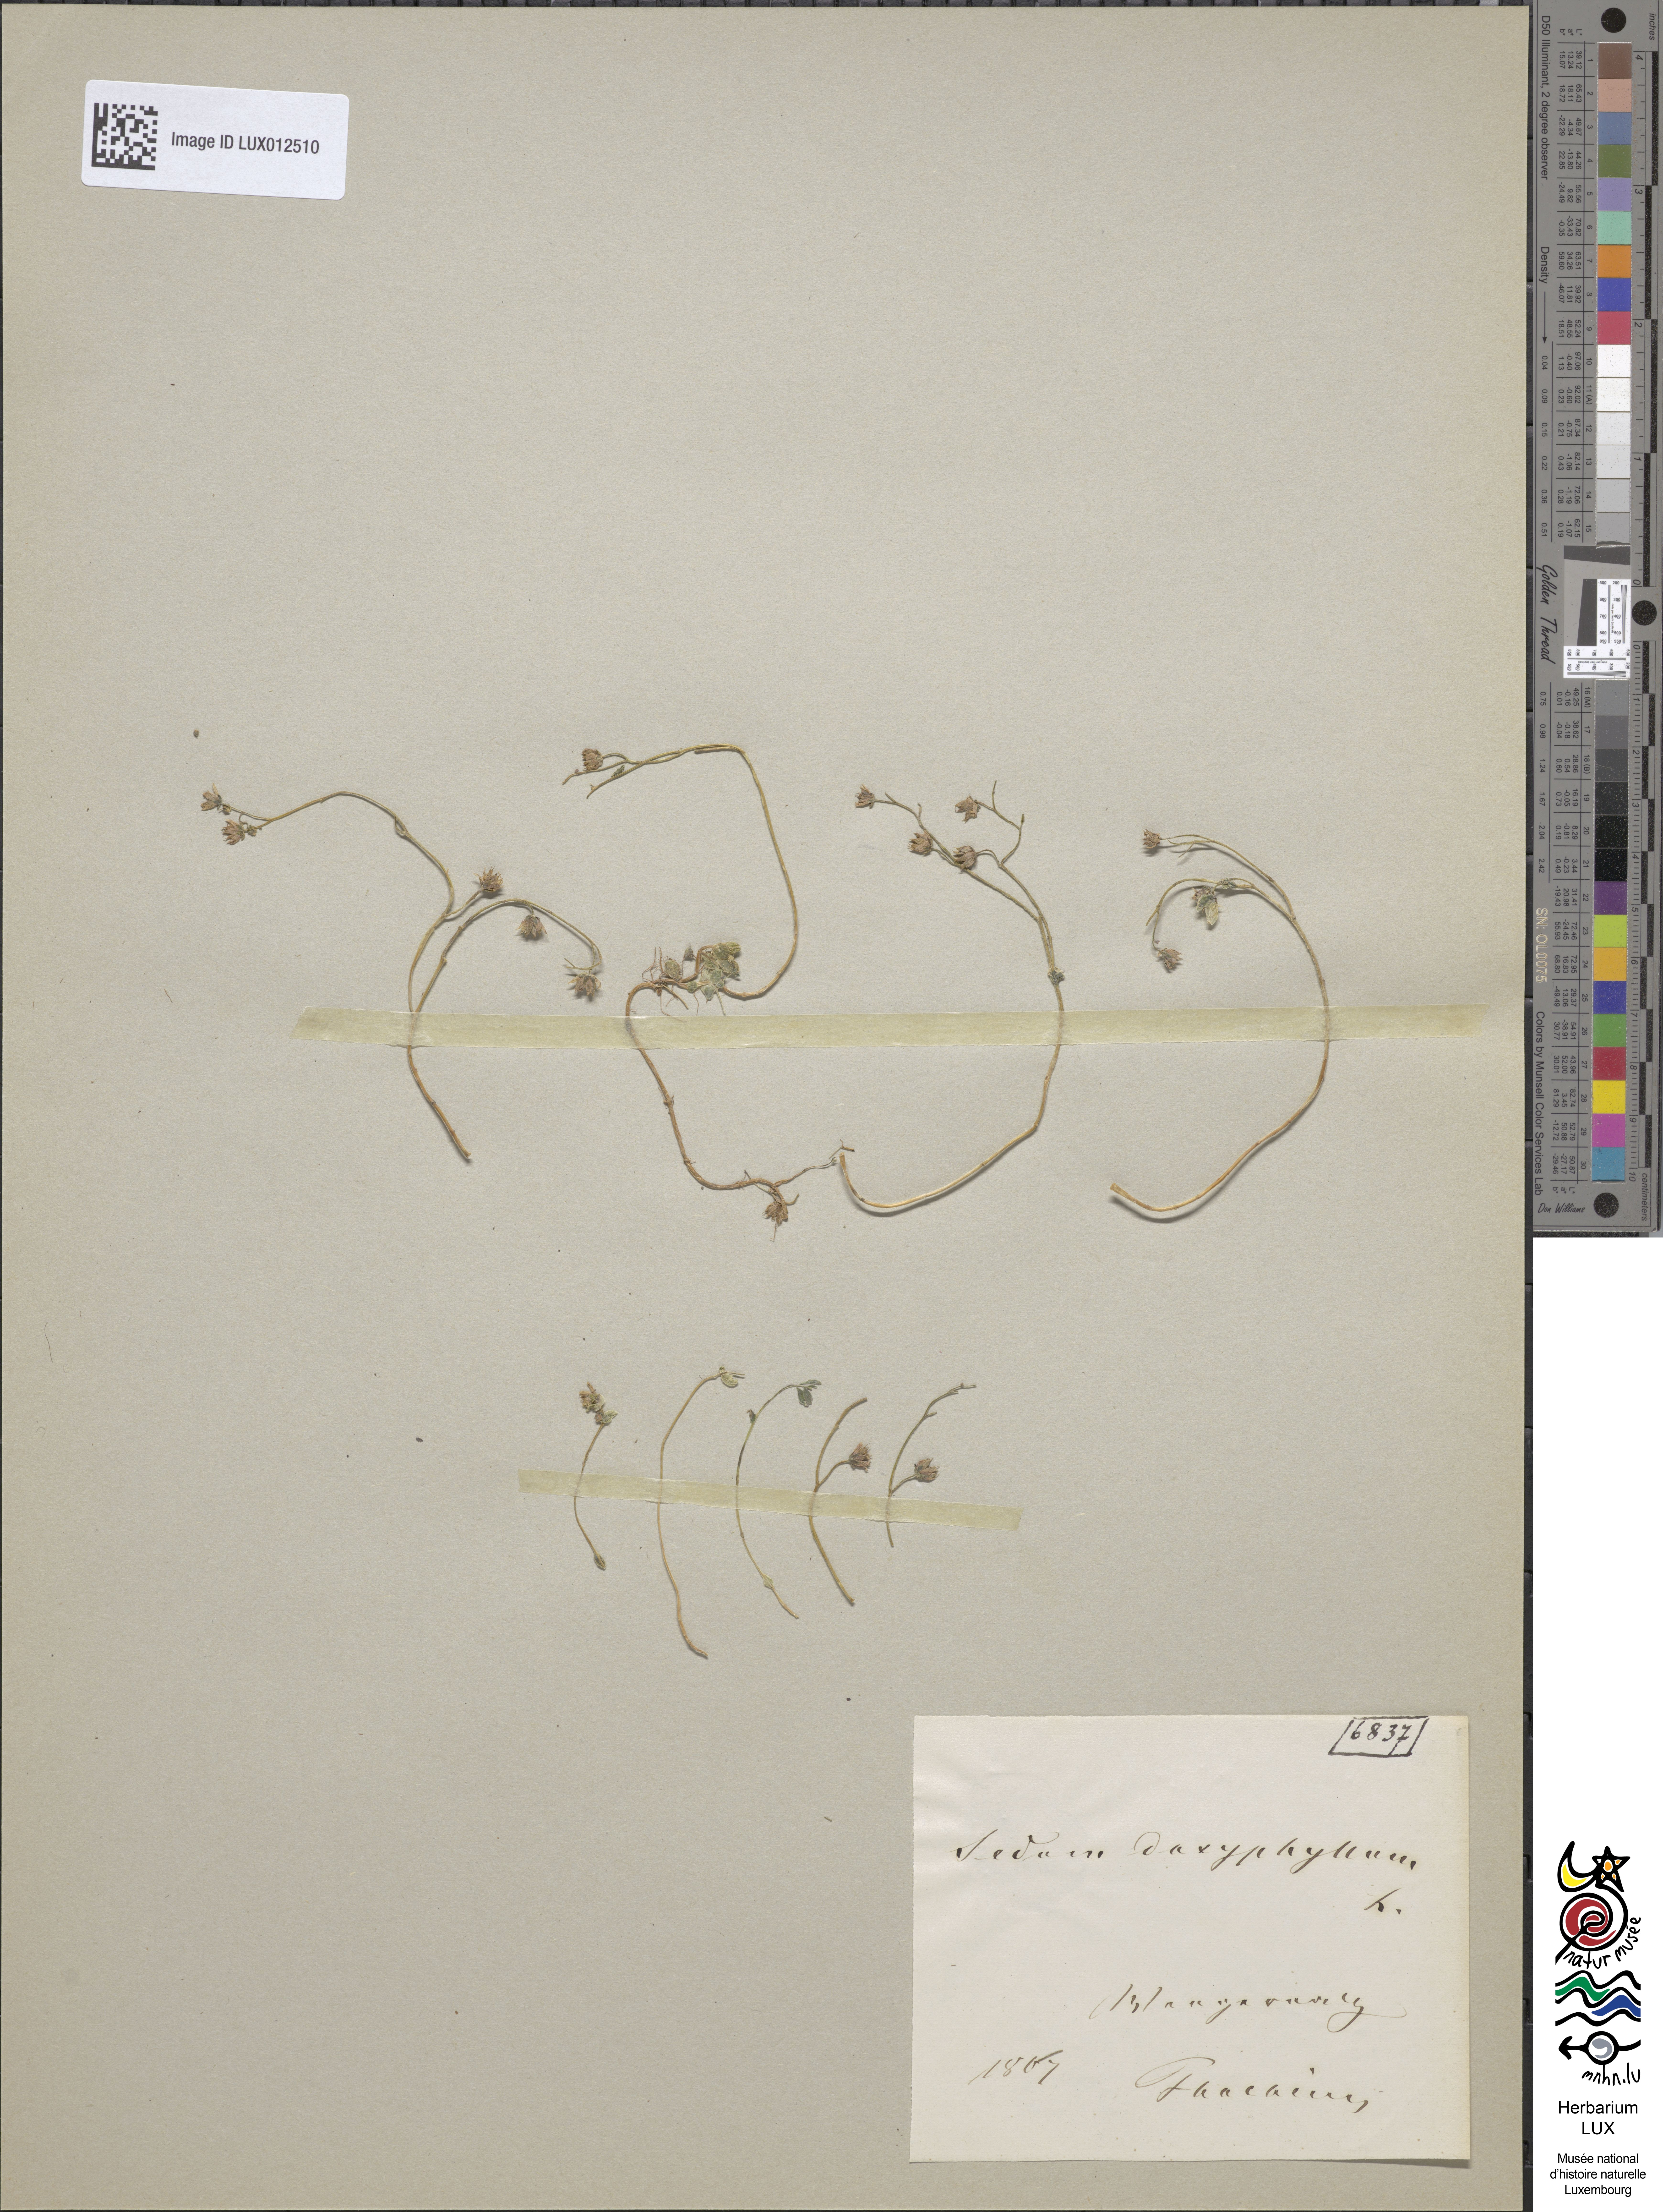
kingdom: Plantae
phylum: Tracheophyta
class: Magnoliopsida
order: Saxifragales
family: Crassulaceae
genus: Sedum
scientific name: Sedum dasyphyllum
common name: Thick-leaf stonecrop
